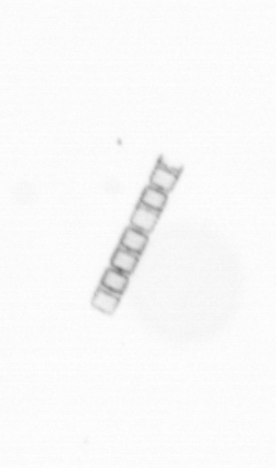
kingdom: Chromista
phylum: Ochrophyta
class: Bacillariophyceae
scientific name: Bacillariophyceae
